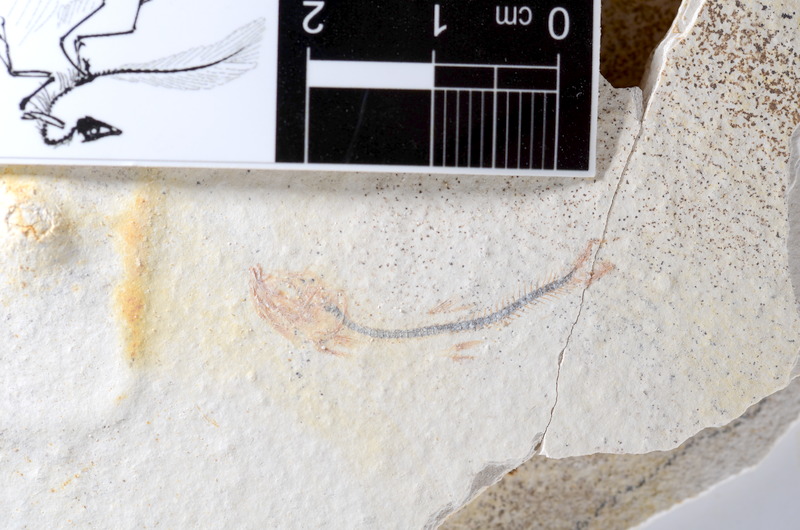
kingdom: Animalia
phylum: Chordata
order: Salmoniformes
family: Orthogonikleithridae
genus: Orthogonikleithrus
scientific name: Orthogonikleithrus hoelli
